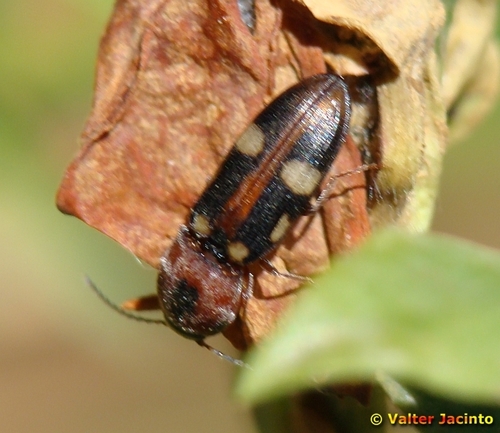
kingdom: Animalia
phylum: Arthropoda
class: Insecta
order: Coleoptera
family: Elateridae
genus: Cardiophorus
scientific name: Cardiophorus signatus
